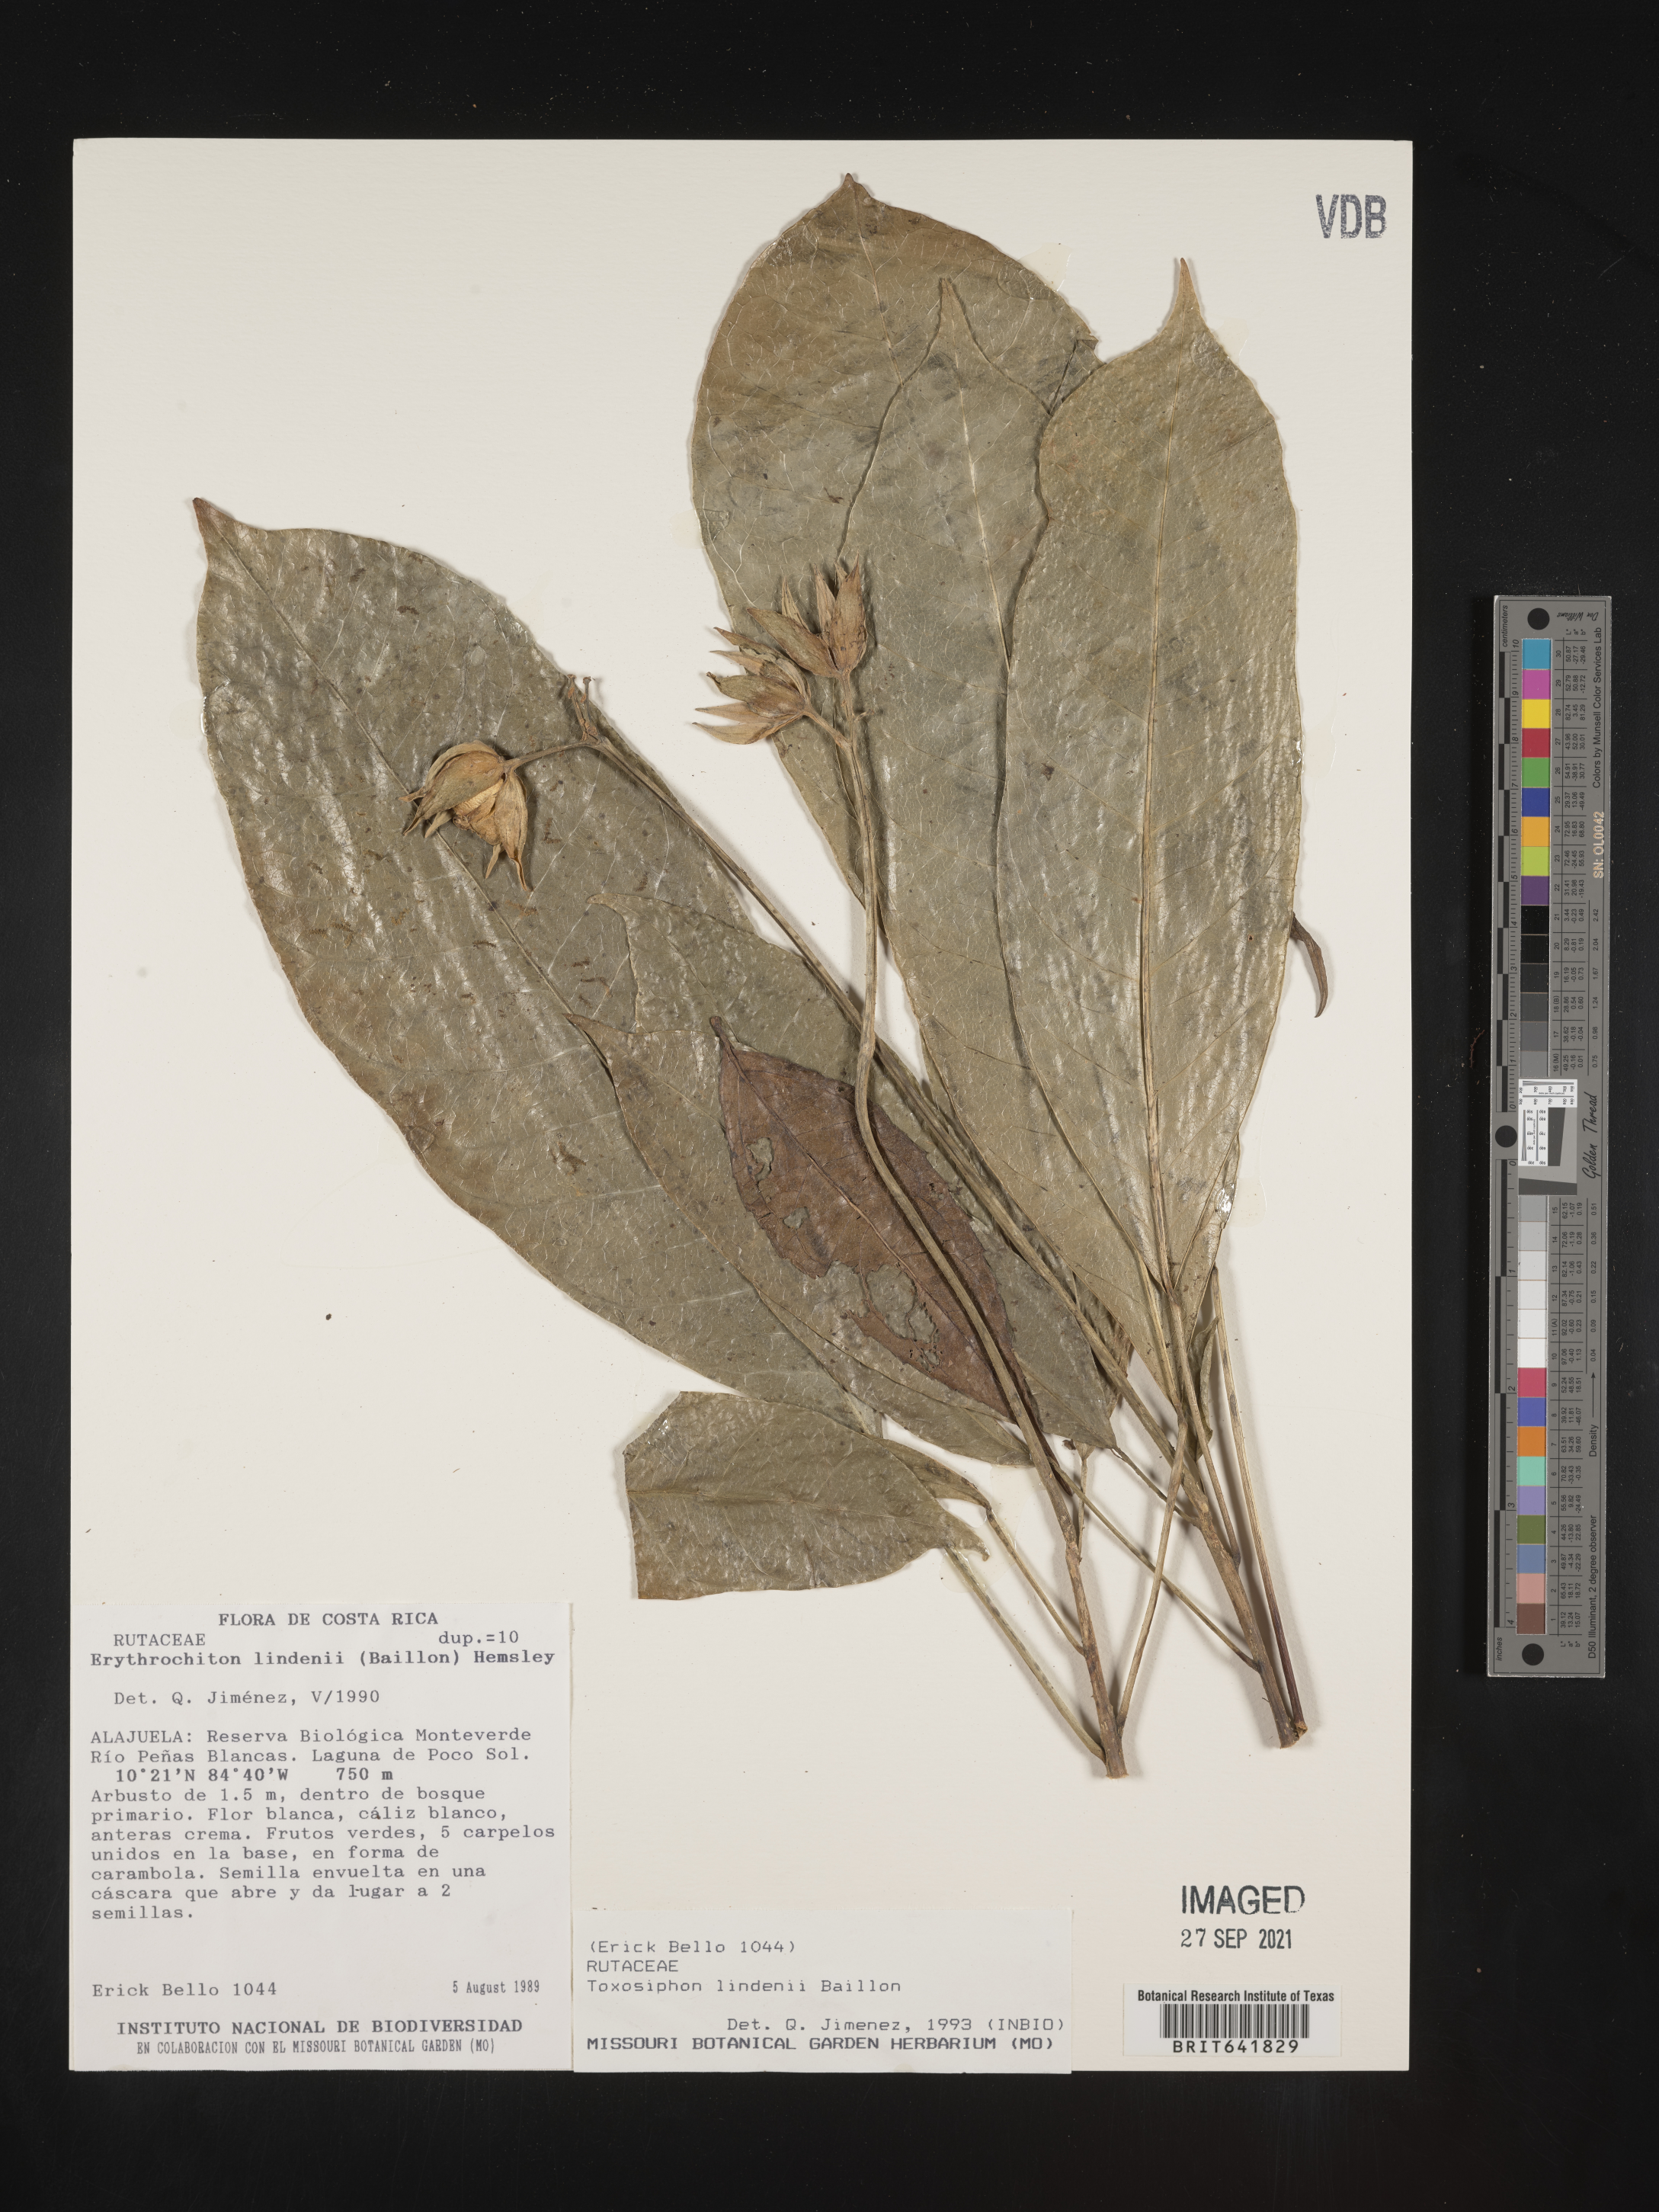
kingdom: Plantae
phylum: Tracheophyta
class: Magnoliopsida
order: Sapindales
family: Rutaceae
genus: Erythrochiton
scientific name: Erythrochiton
